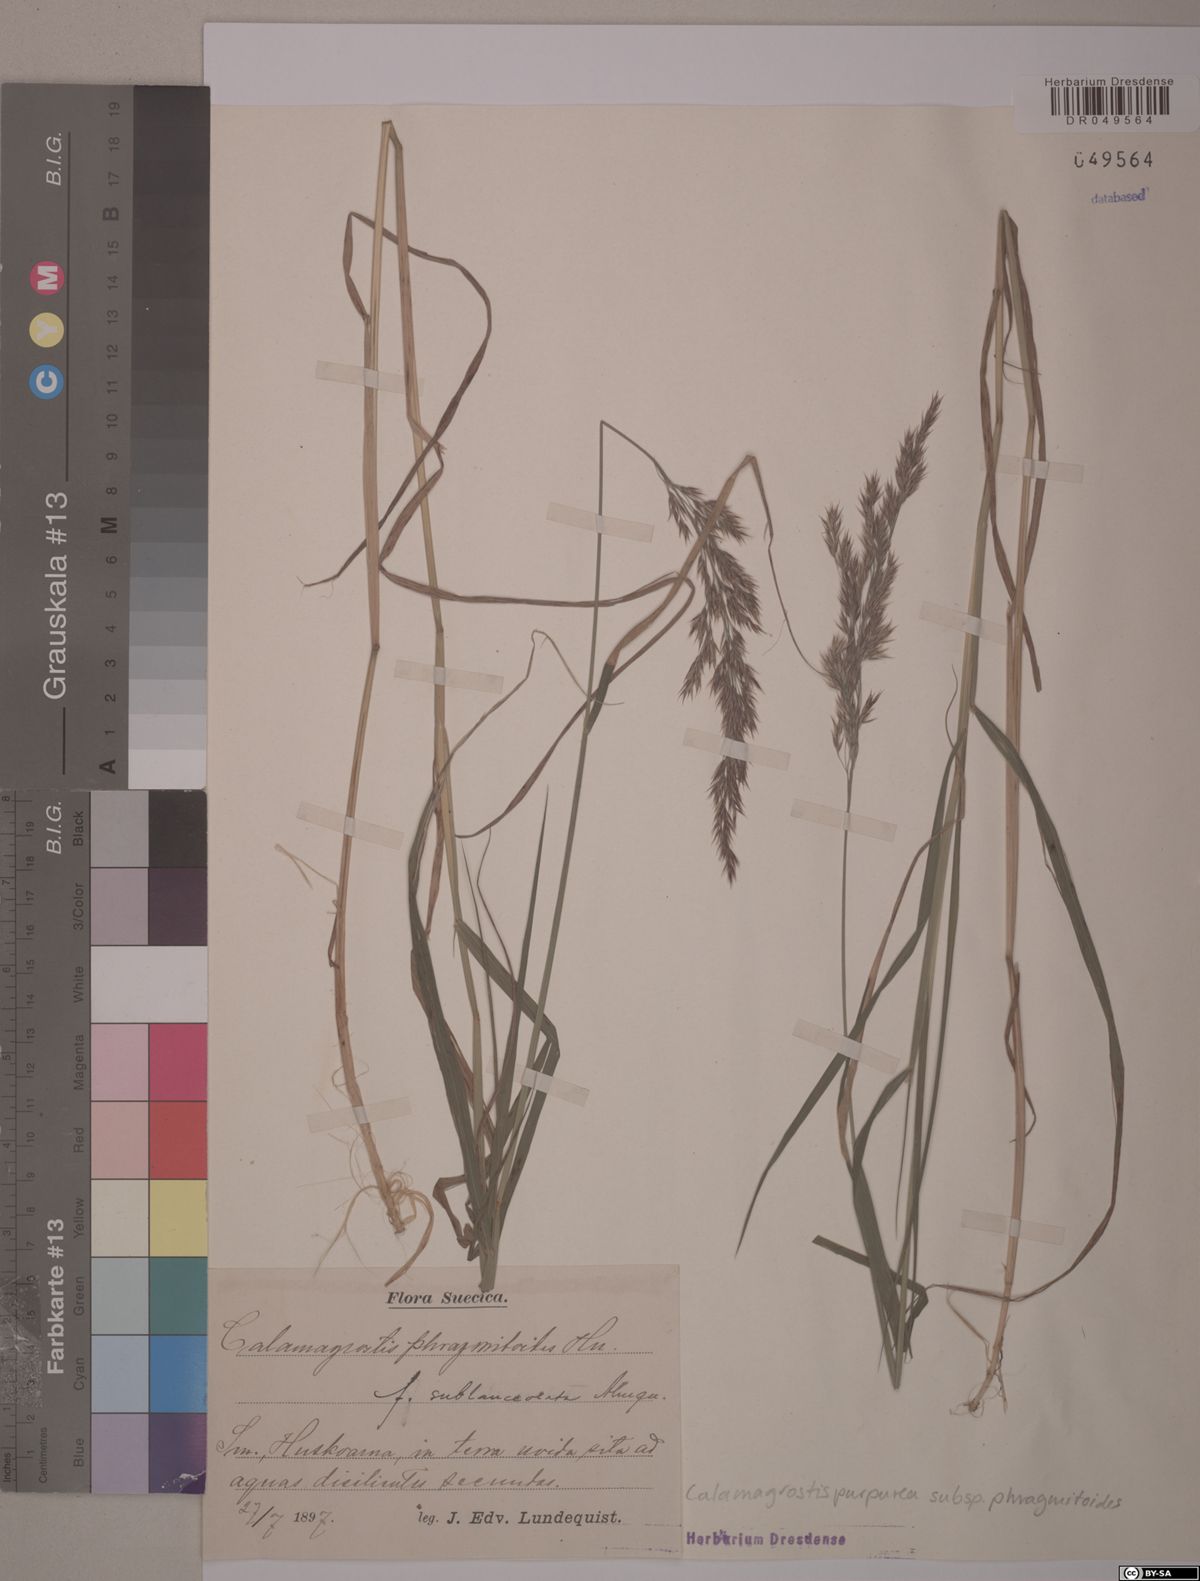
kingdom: Plantae
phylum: Tracheophyta
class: Liliopsida
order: Poales
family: Poaceae
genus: Calamagrostis
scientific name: Calamagrostis purpurea
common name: Scandinavian small-reed
